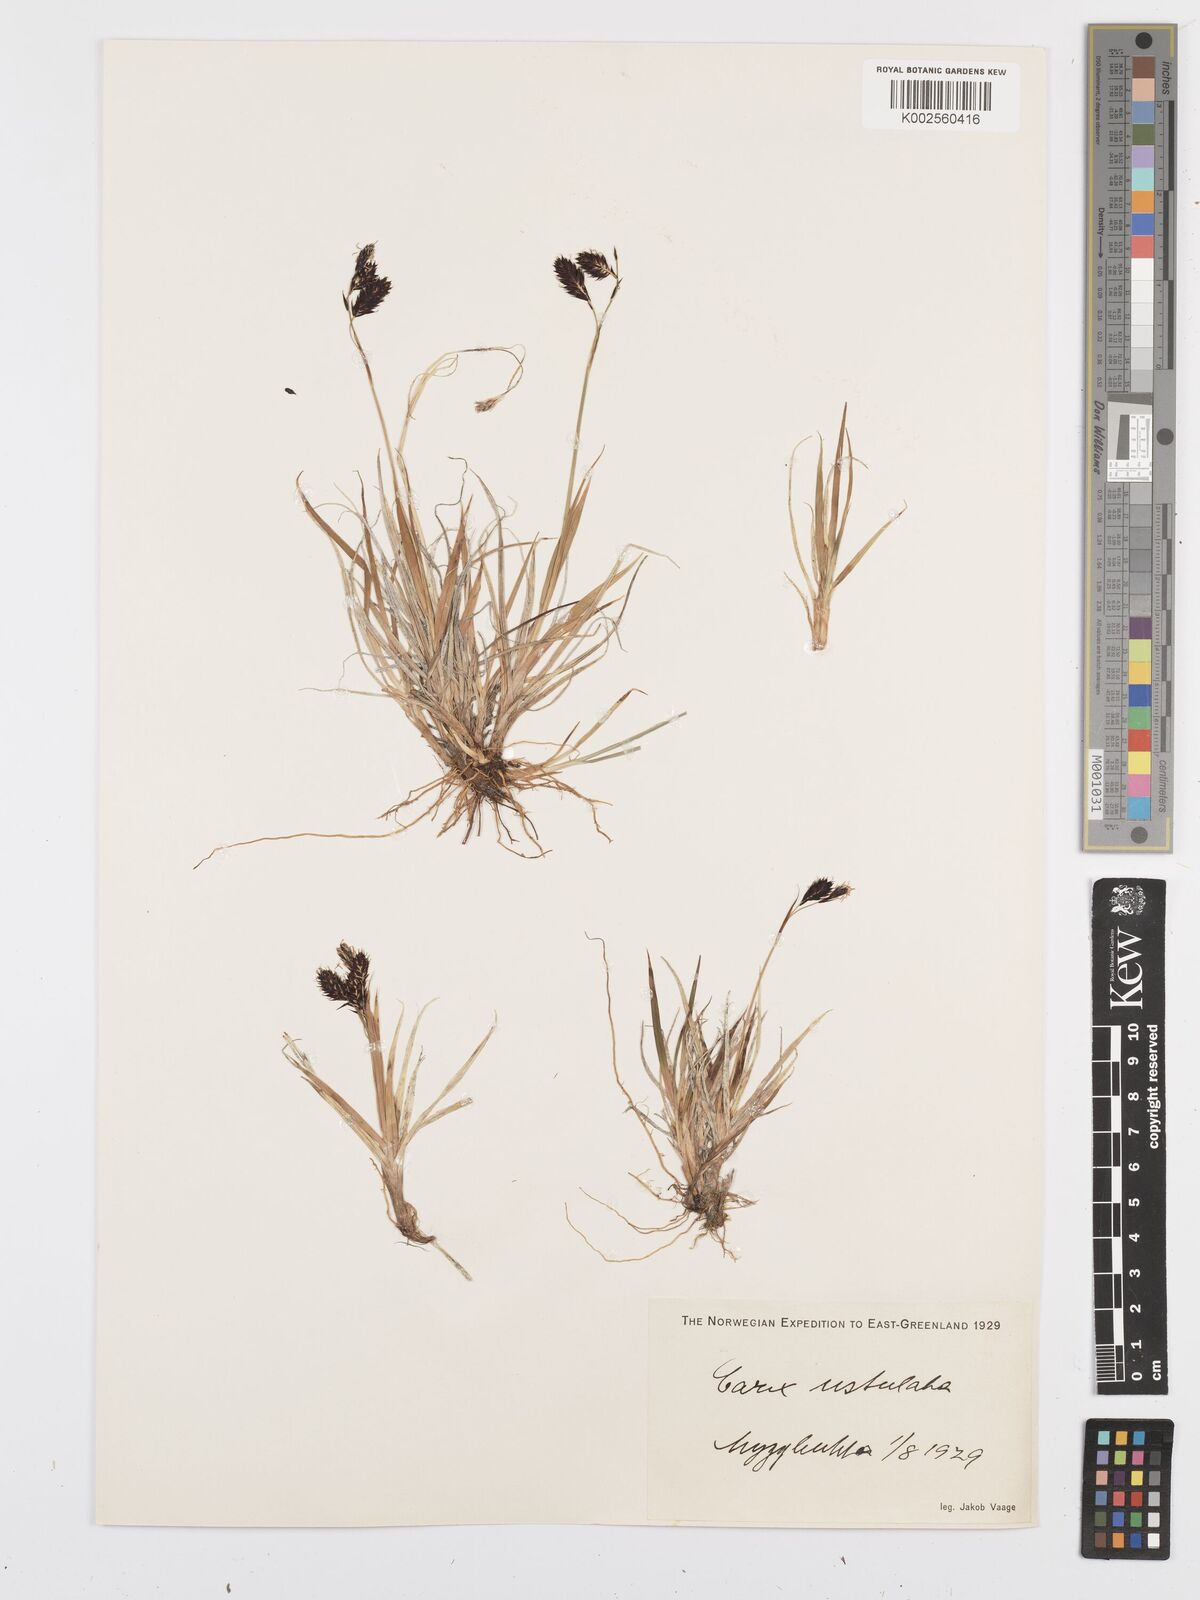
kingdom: Plantae
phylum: Tracheophyta
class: Liliopsida
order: Poales
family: Cyperaceae
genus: Carex
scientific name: Carex atrofusca
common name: Scorched alpine-sedge
